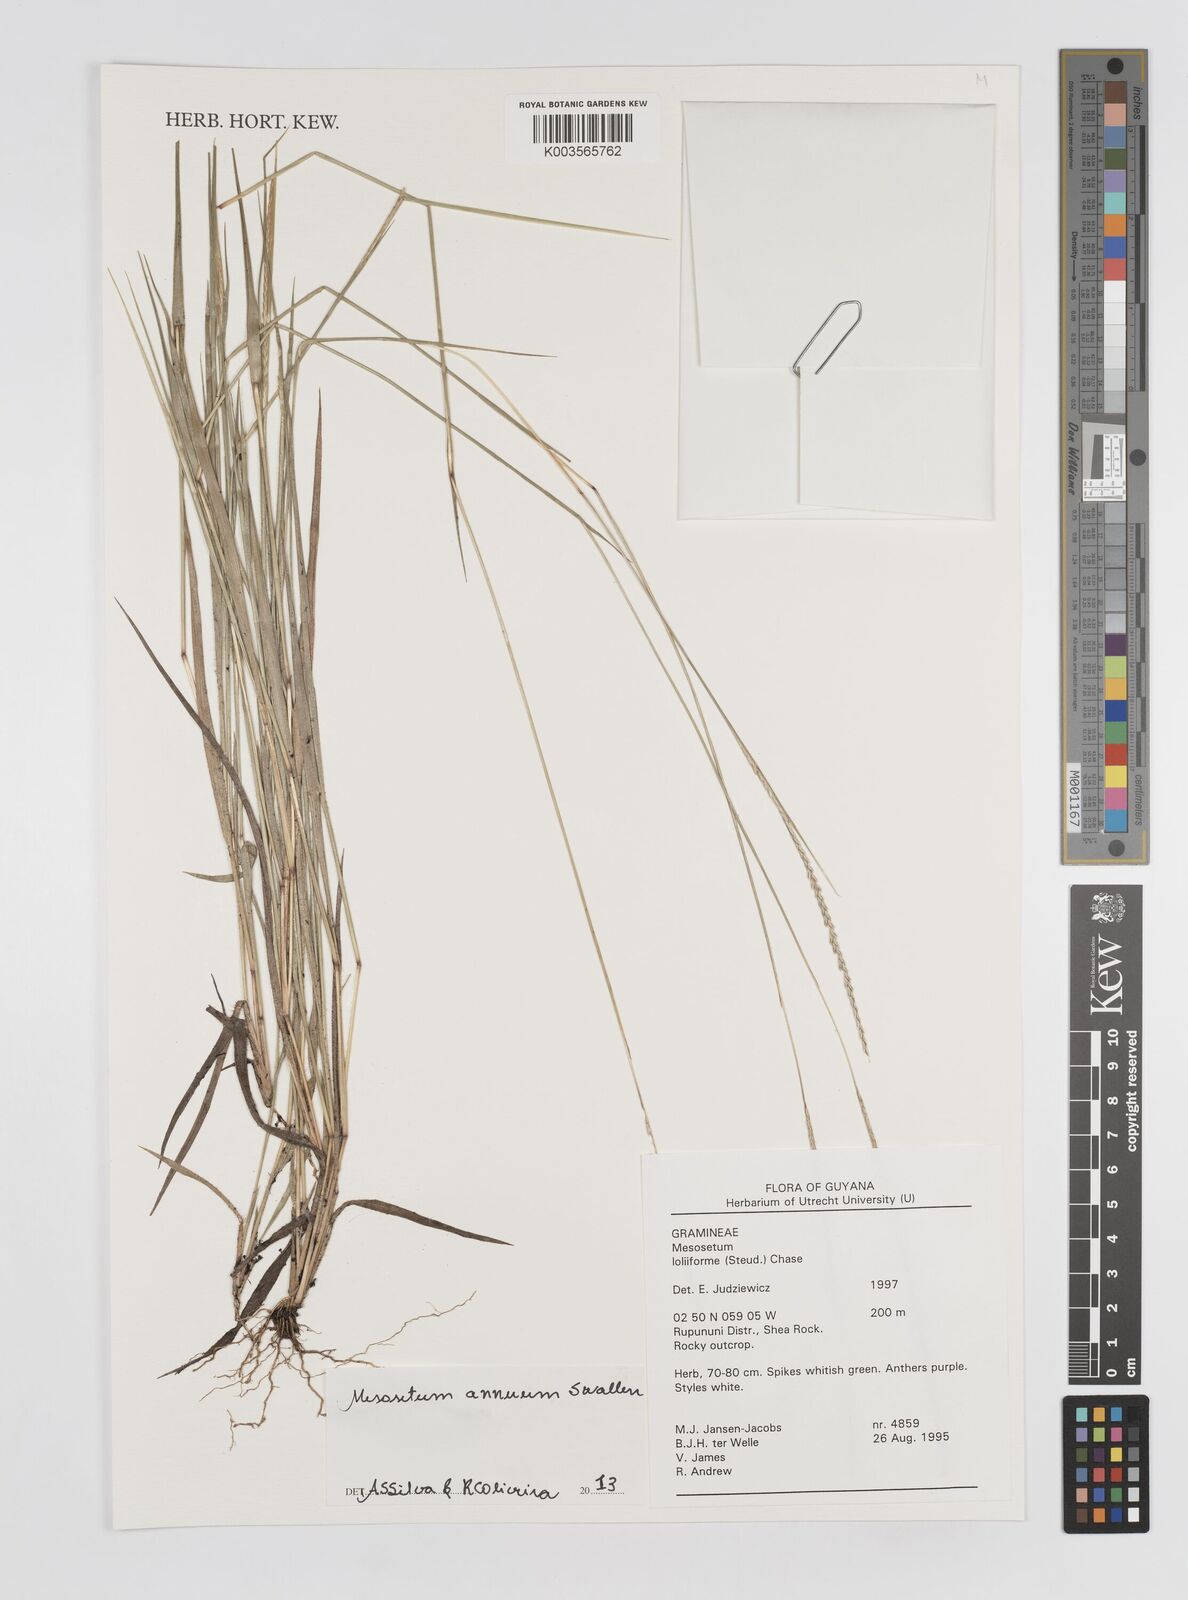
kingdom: Plantae
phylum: Tracheophyta
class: Liliopsida
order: Poales
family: Poaceae
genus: Mesosetum
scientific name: Mesosetum annuum
